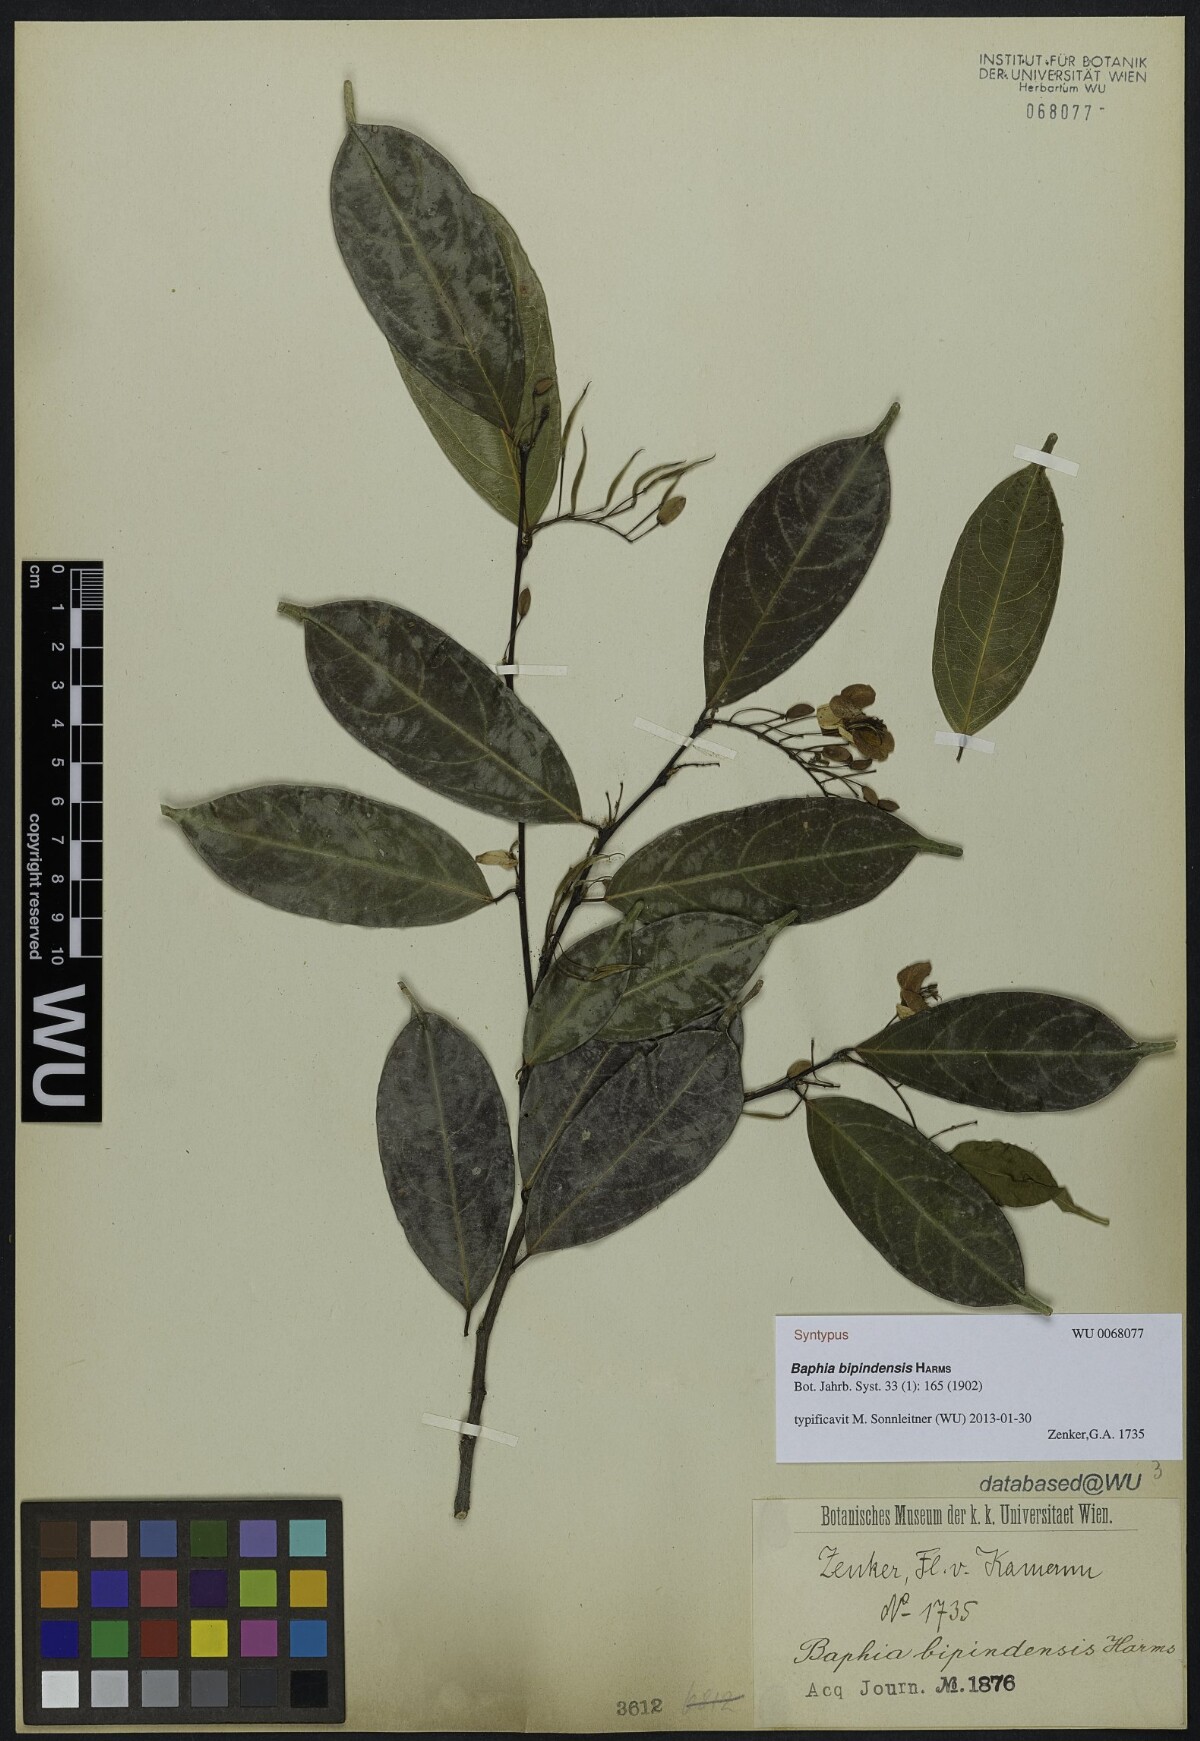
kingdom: Plantae
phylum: Tracheophyta
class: Magnoliopsida
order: Fabales
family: Fabaceae
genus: Baphia
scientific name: Baphia buettneri
